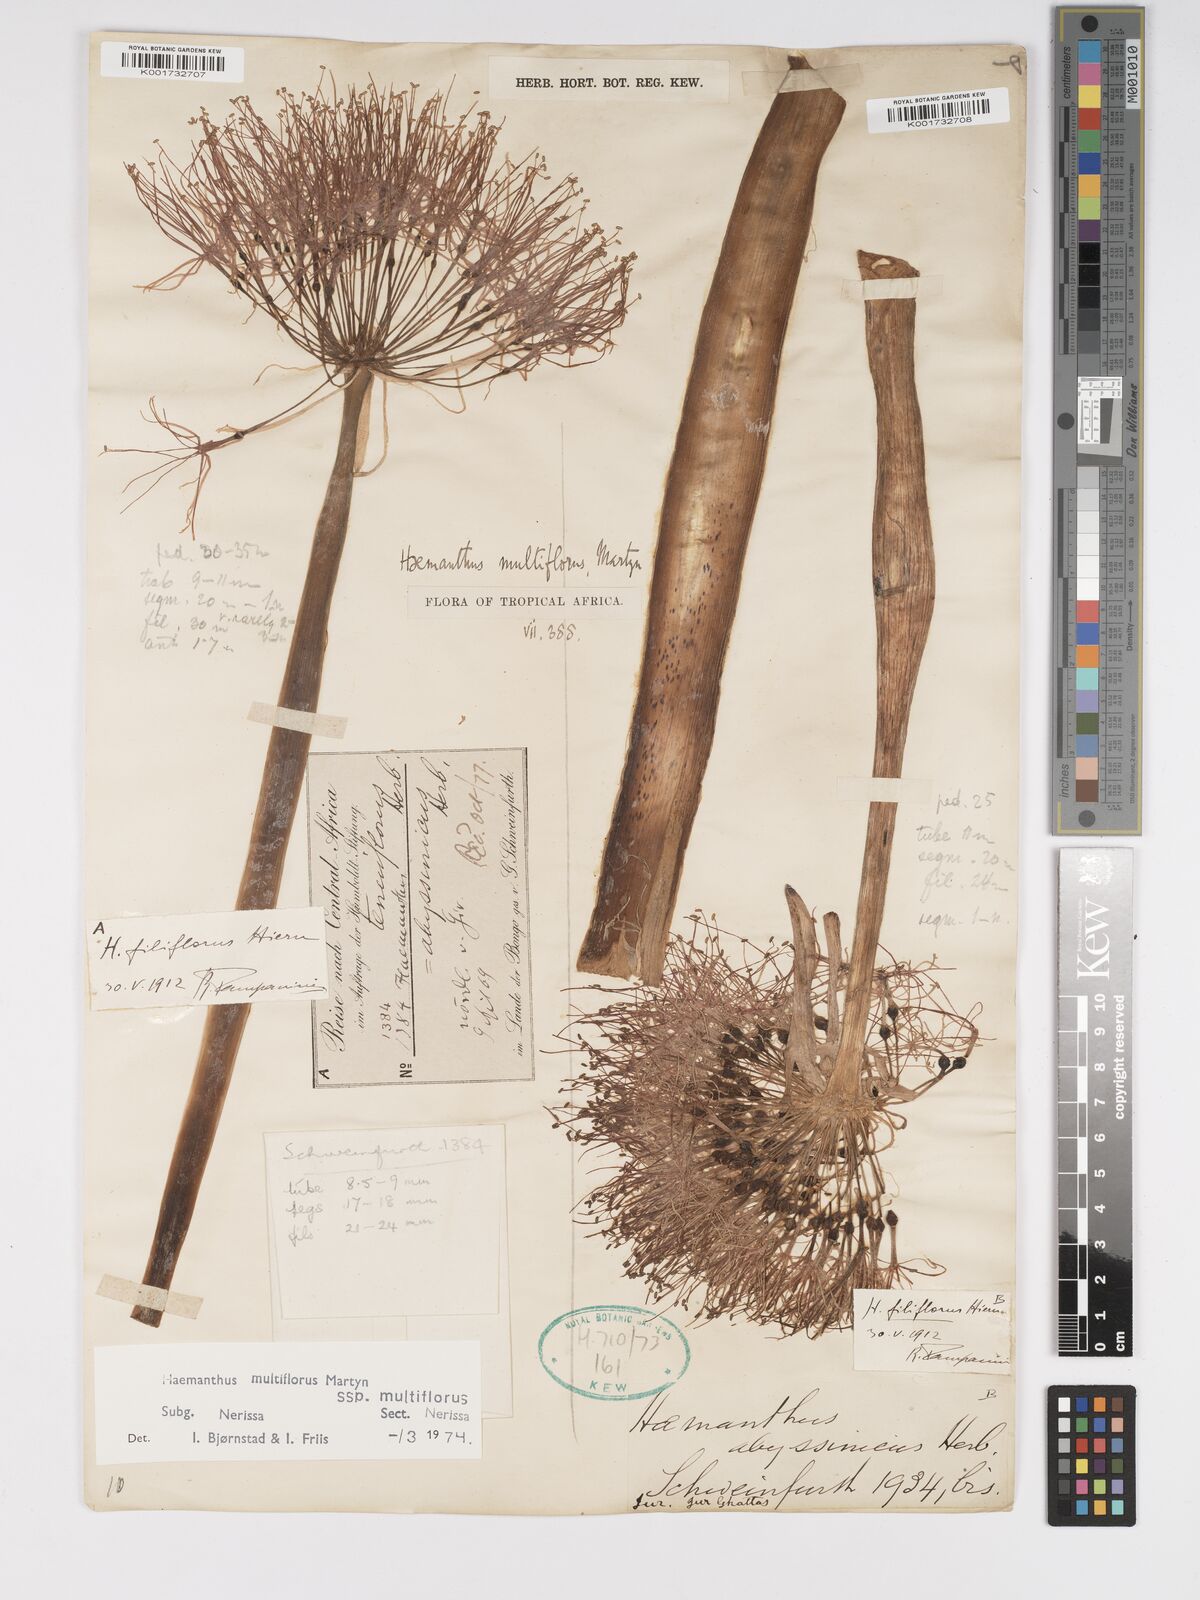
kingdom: Plantae
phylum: Tracheophyta
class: Liliopsida
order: Asparagales
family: Amaryllidaceae
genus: Scadoxus
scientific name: Scadoxus multiflorus
